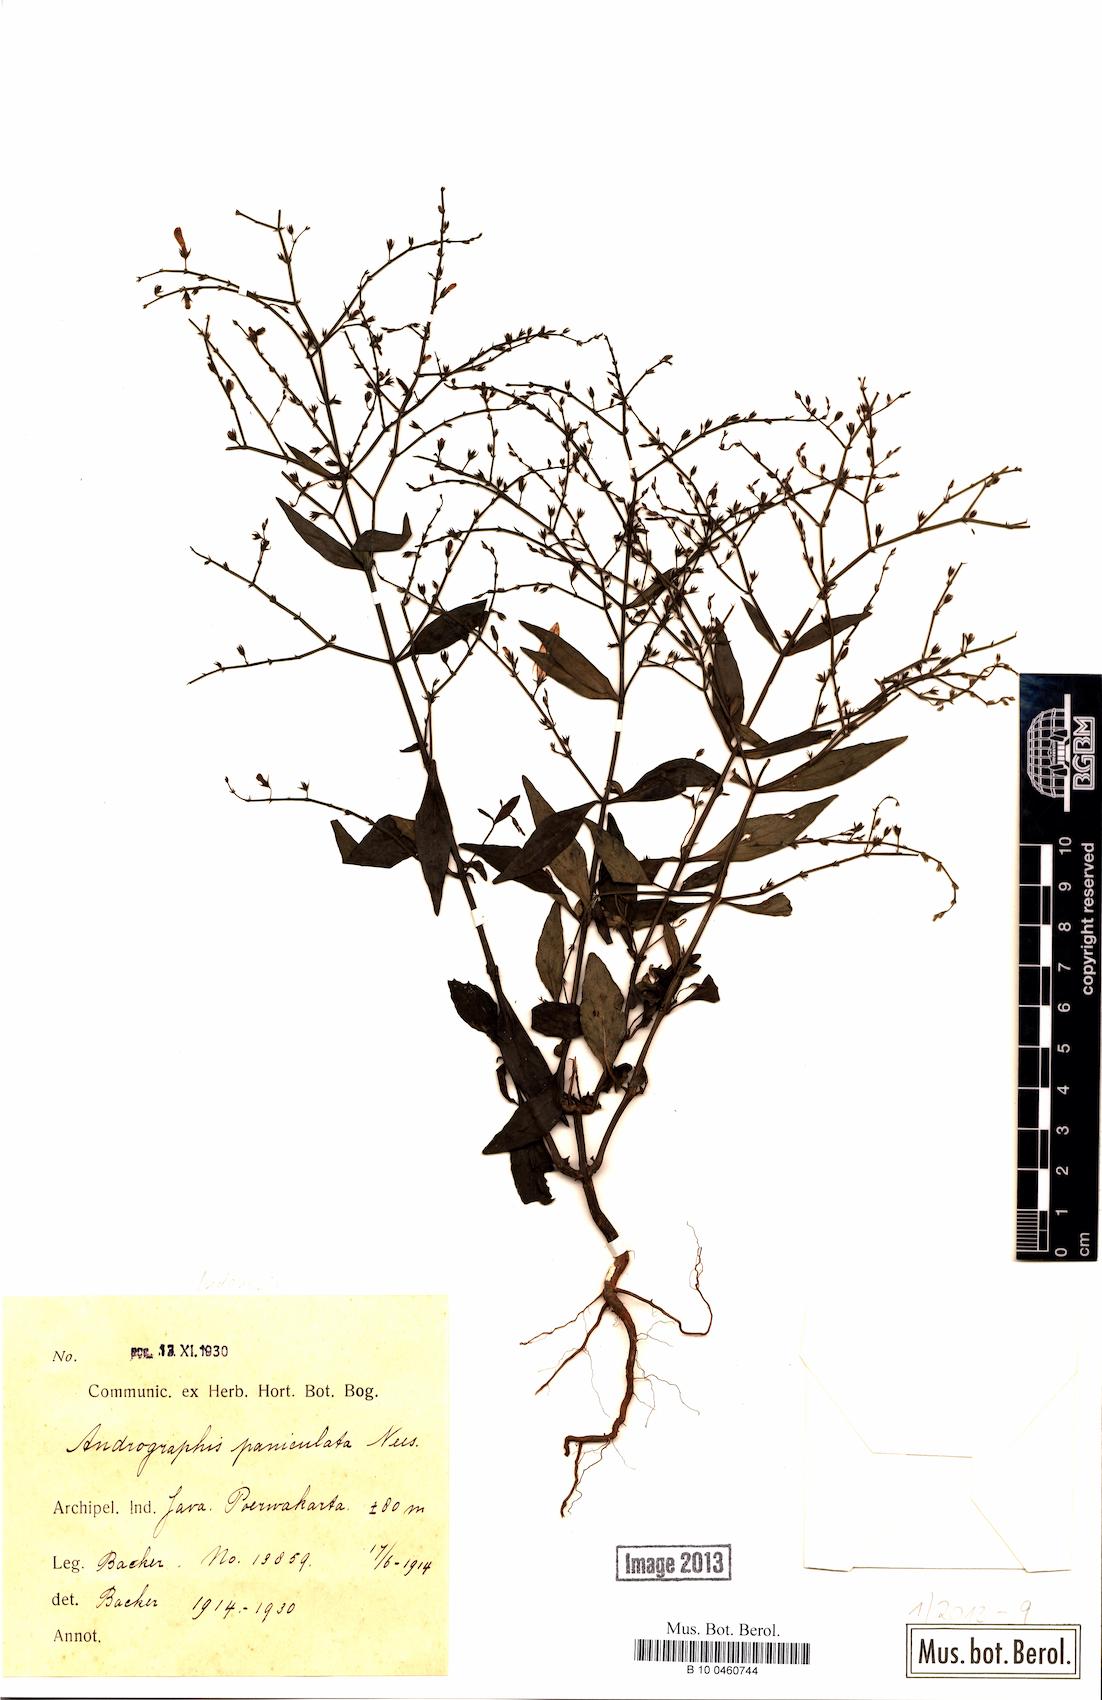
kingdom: Plantae
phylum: Tracheophyta
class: Magnoliopsida
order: Lamiales
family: Acanthaceae
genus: Andrographis
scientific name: Andrographis paniculata
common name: Green chireta
